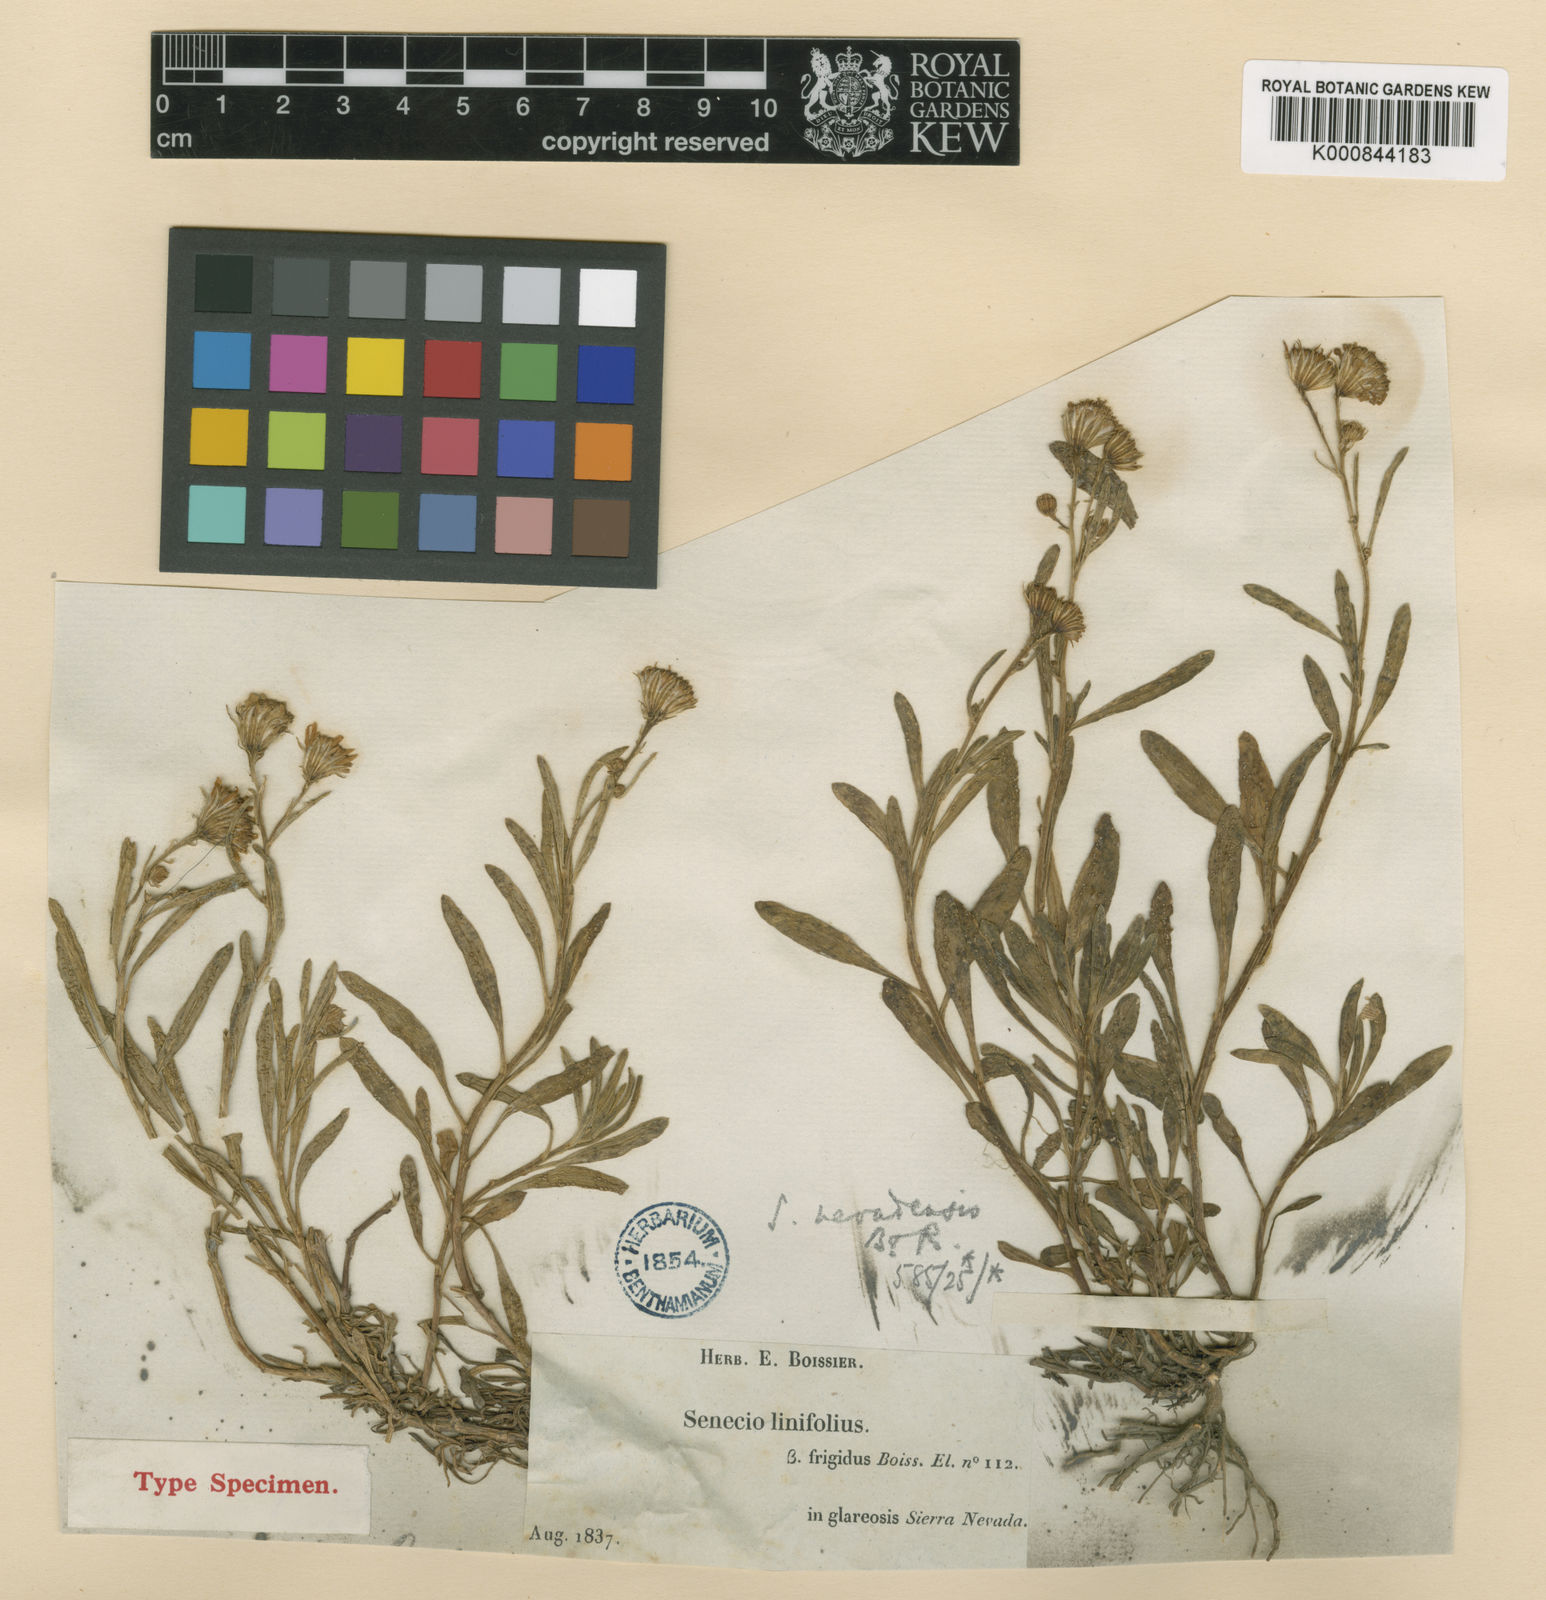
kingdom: Plantae
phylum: Tracheophyta
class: Magnoliopsida
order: Asterales
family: Asteraceae
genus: Senecio
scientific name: Senecio
